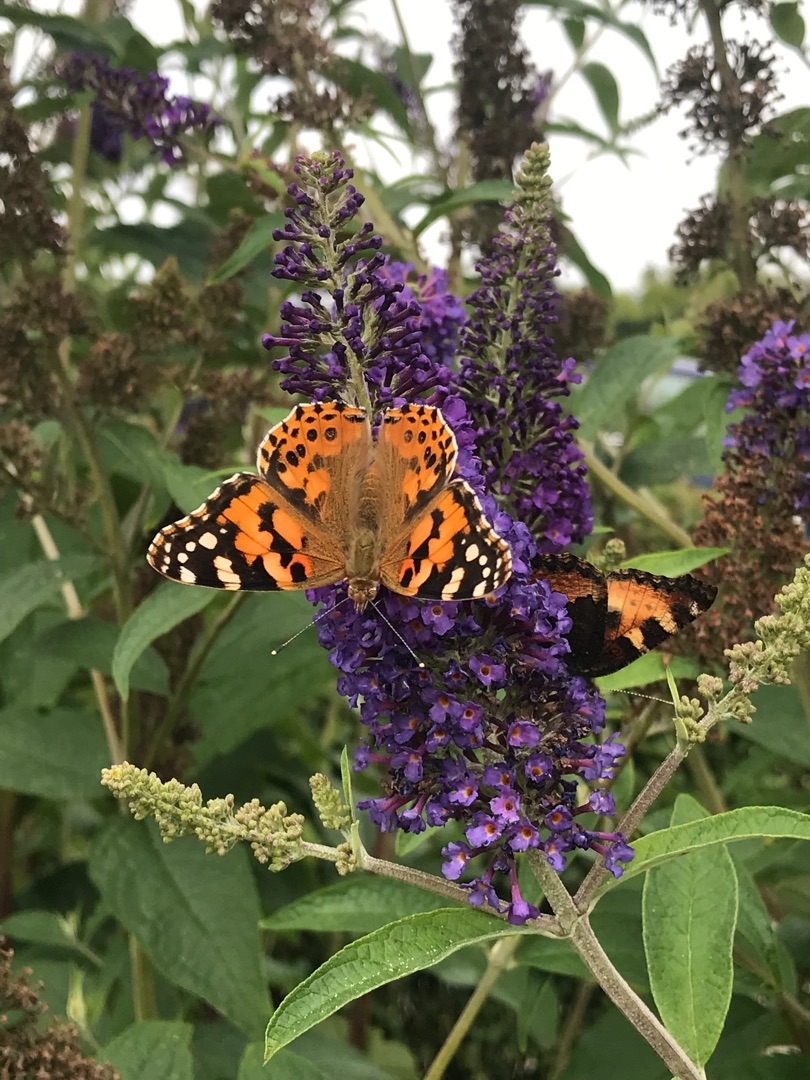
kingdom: Animalia
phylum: Arthropoda
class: Insecta
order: Lepidoptera
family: Nymphalidae
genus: Vanessa
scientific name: Vanessa cardui
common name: Tidselsommerfugl
